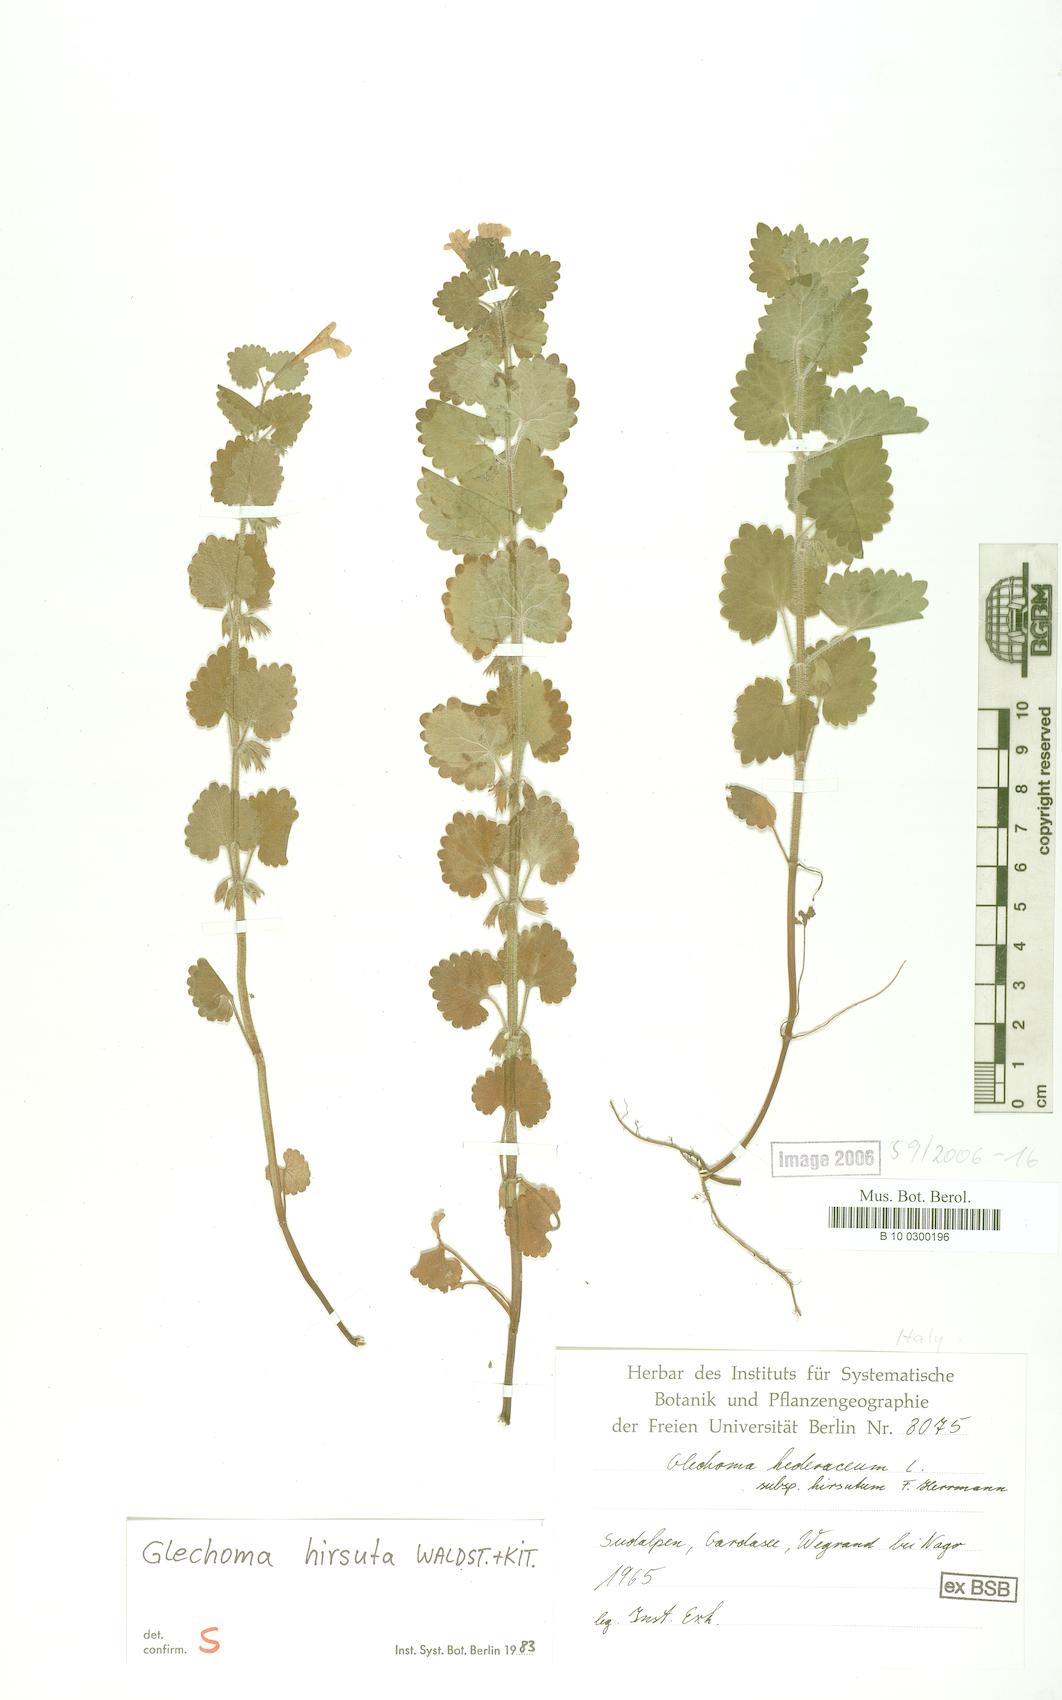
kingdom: Plantae
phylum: Tracheophyta
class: Magnoliopsida
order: Lamiales
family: Lamiaceae
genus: Glechoma
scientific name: Glechoma hirsuta
